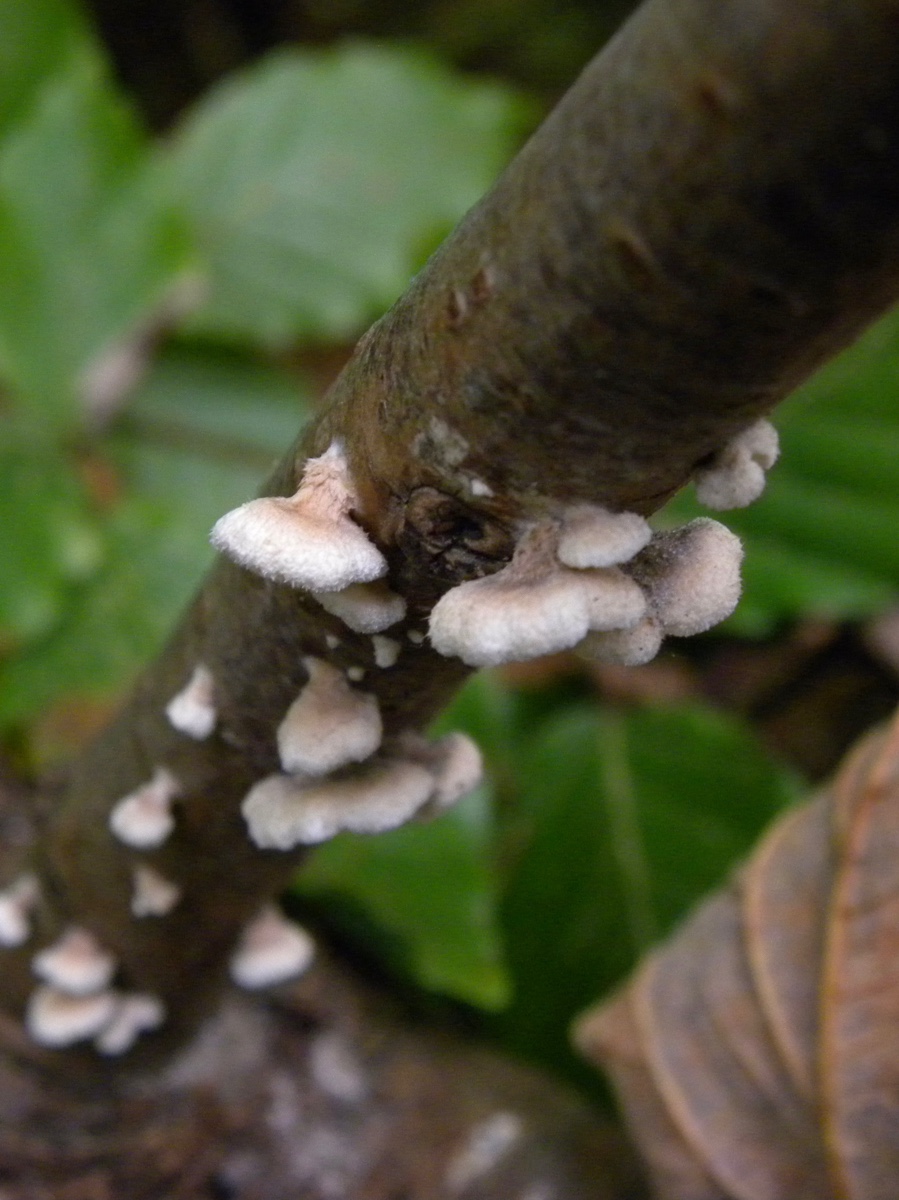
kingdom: Fungi
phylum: Basidiomycota
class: Agaricomycetes
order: Amylocorticiales
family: Amylocorticiaceae
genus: Plicaturopsis
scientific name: Plicaturopsis crispa
